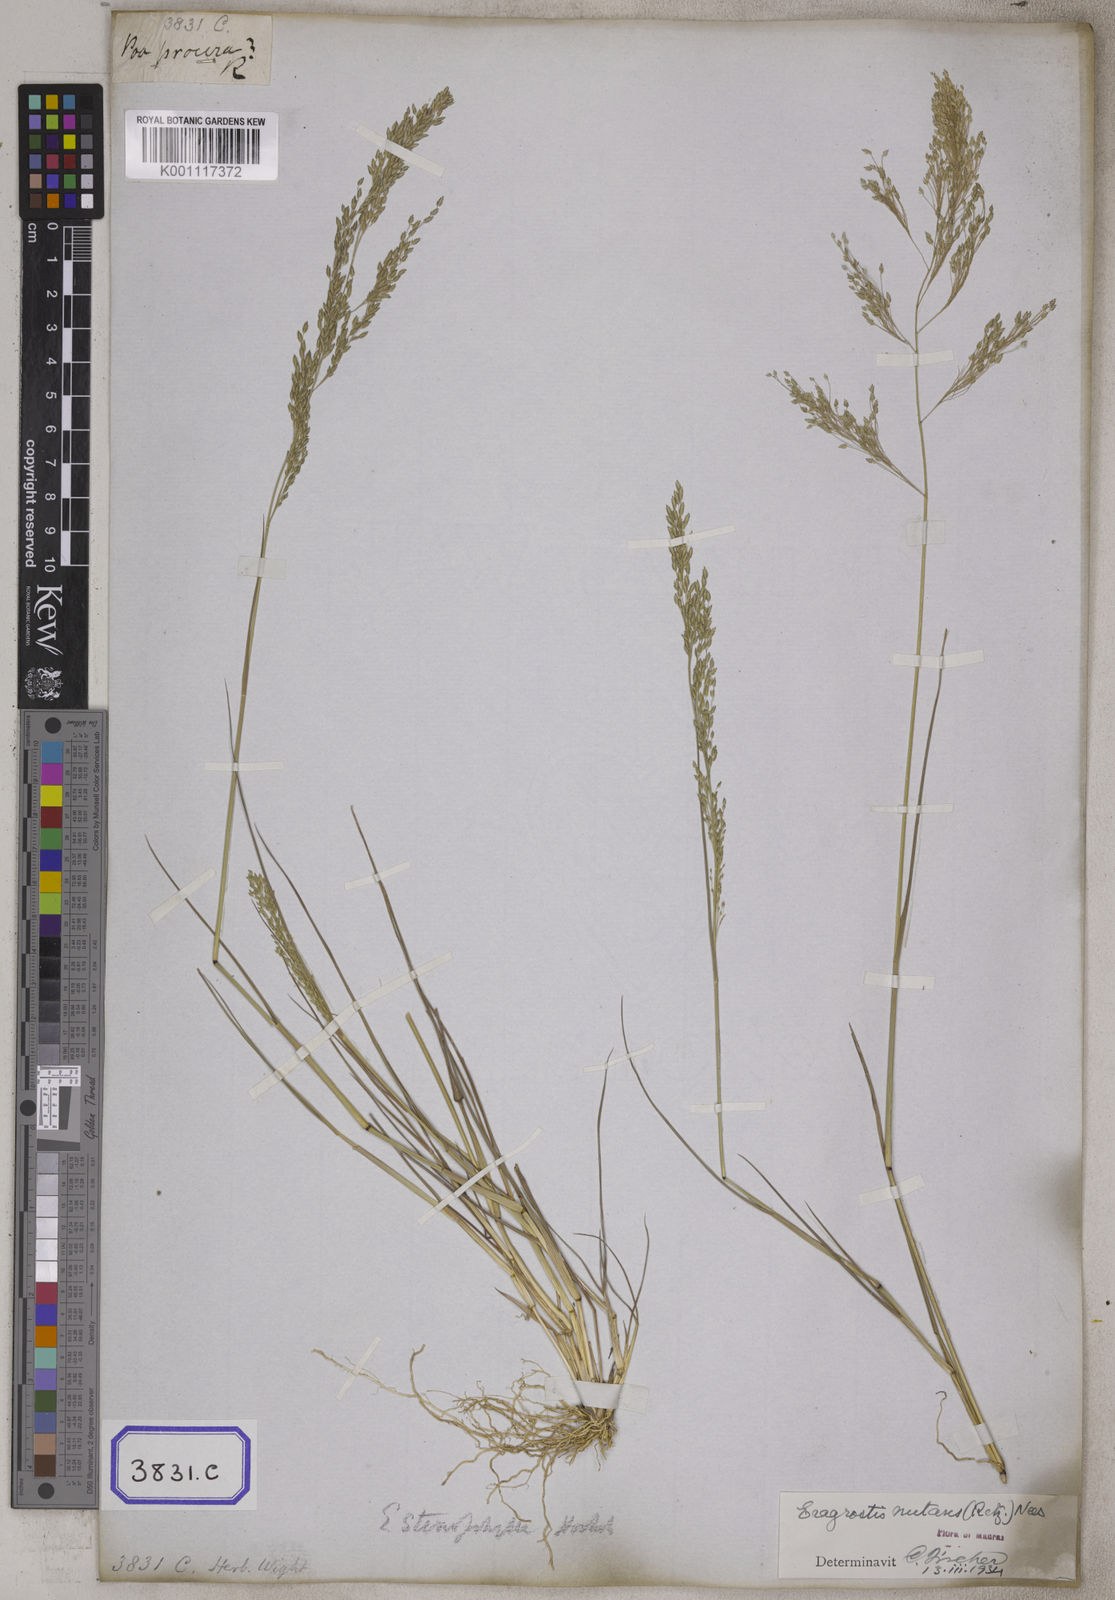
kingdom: Plantae
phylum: Tracheophyta
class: Liliopsida
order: Poales
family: Poaceae
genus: Eragrostis
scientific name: Eragrostis
